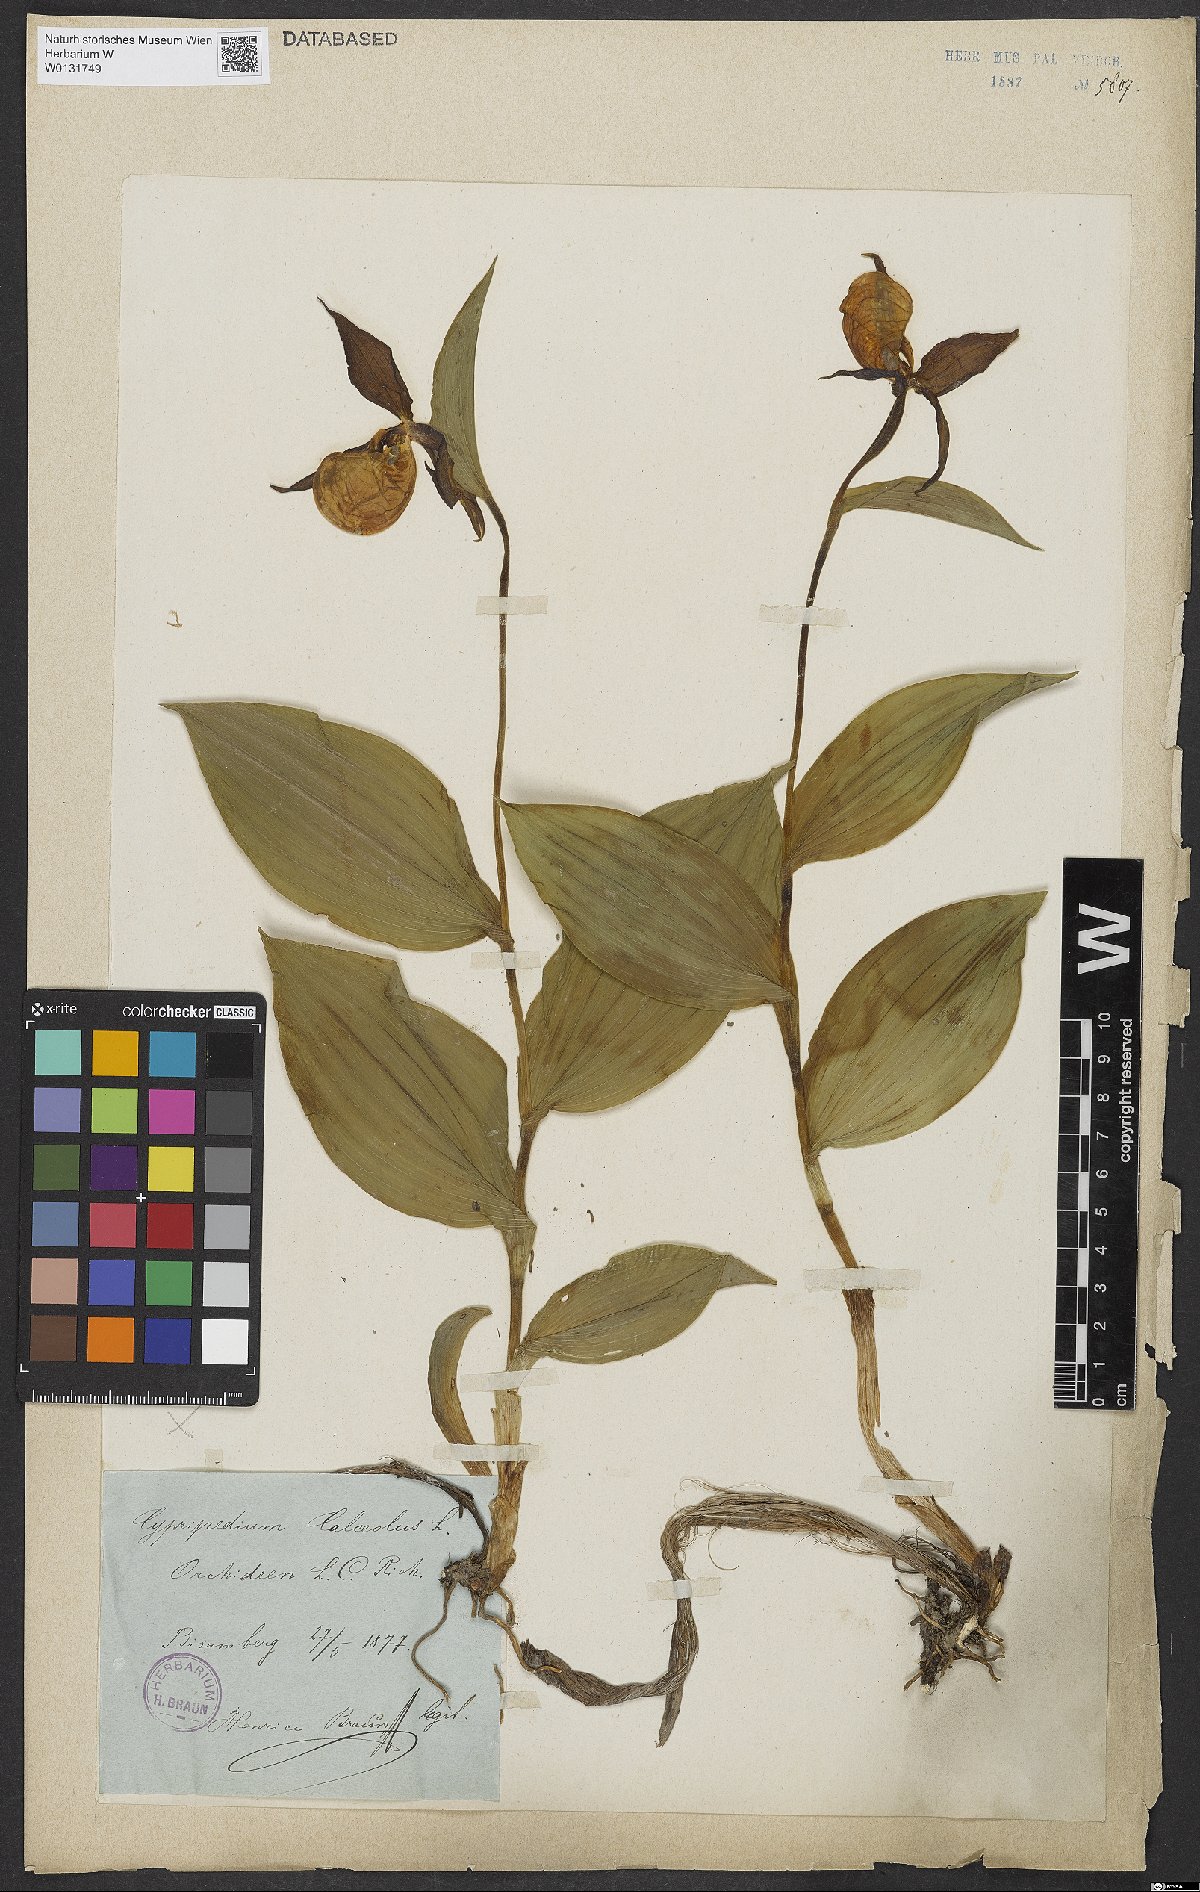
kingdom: Plantae
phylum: Tracheophyta
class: Liliopsida
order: Asparagales
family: Orchidaceae
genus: Cypripedium
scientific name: Cypripedium calceolus
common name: Lady's-slipper
